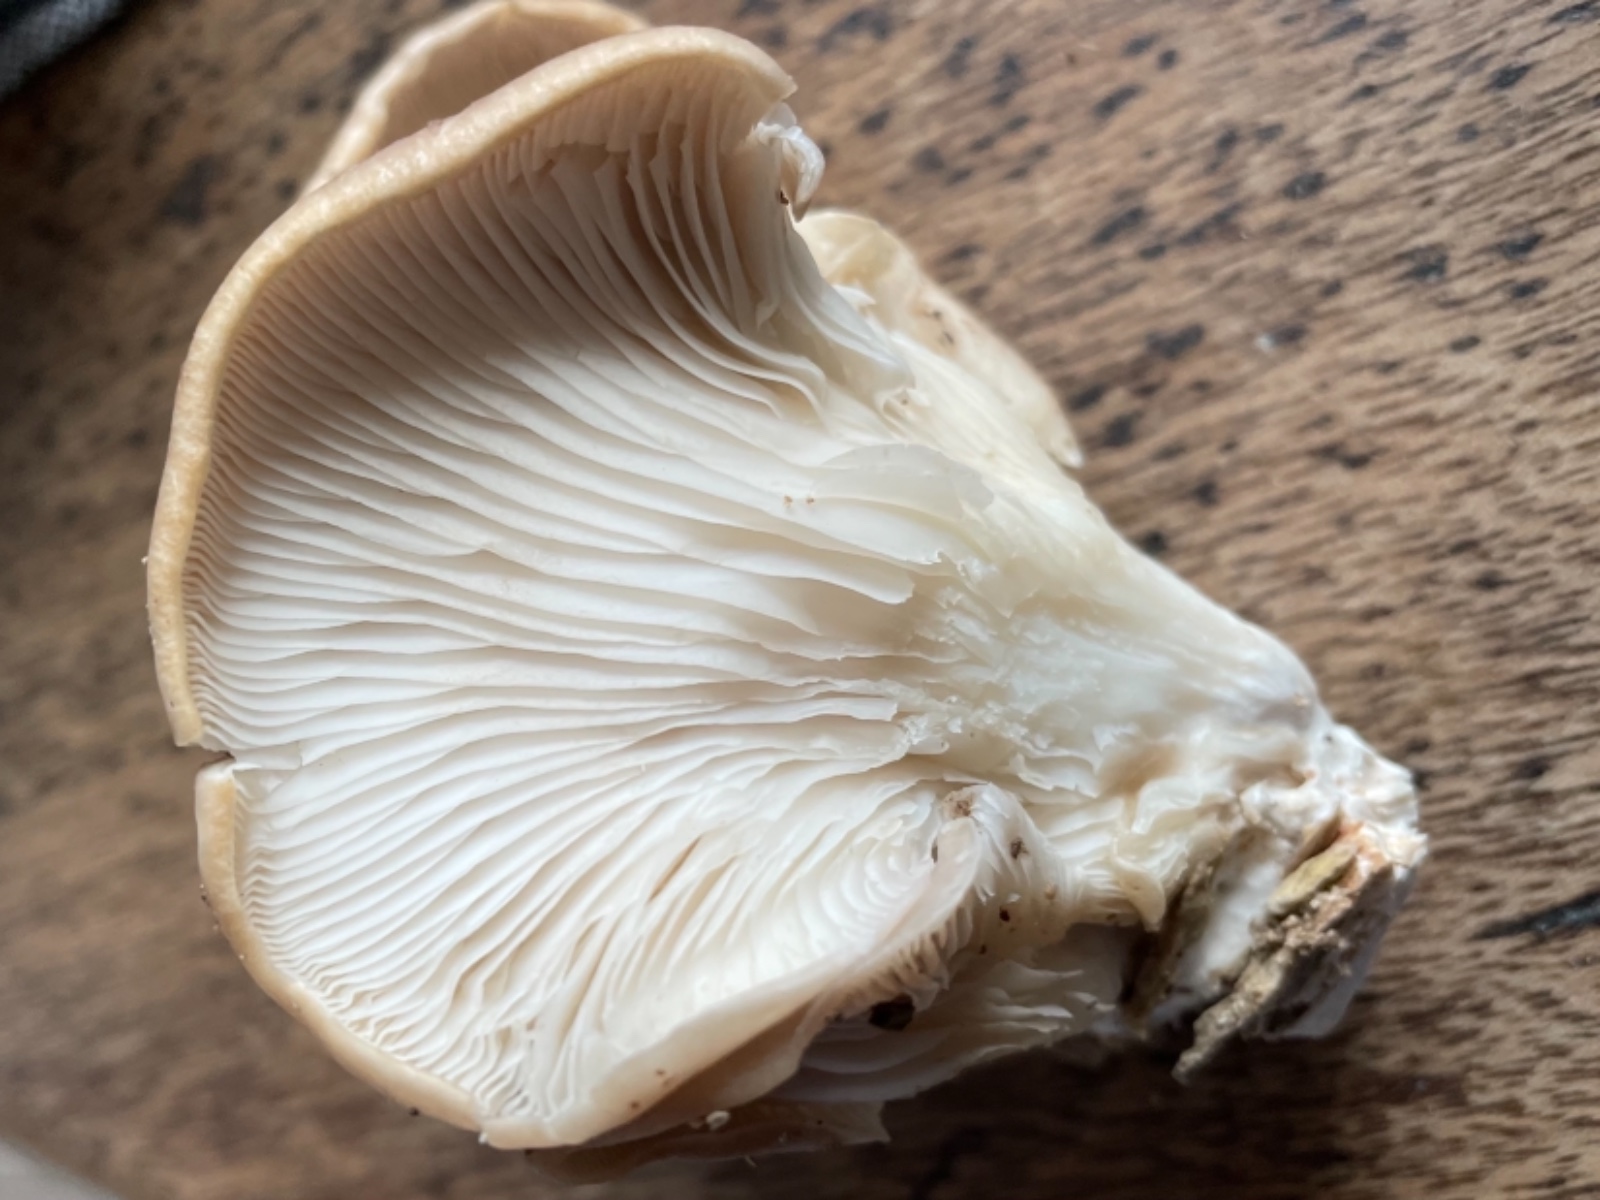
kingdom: Fungi
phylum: Basidiomycota
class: Agaricomycetes
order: Agaricales
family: Pleurotaceae
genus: Pleurotus
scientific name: Pleurotus ostreatus
